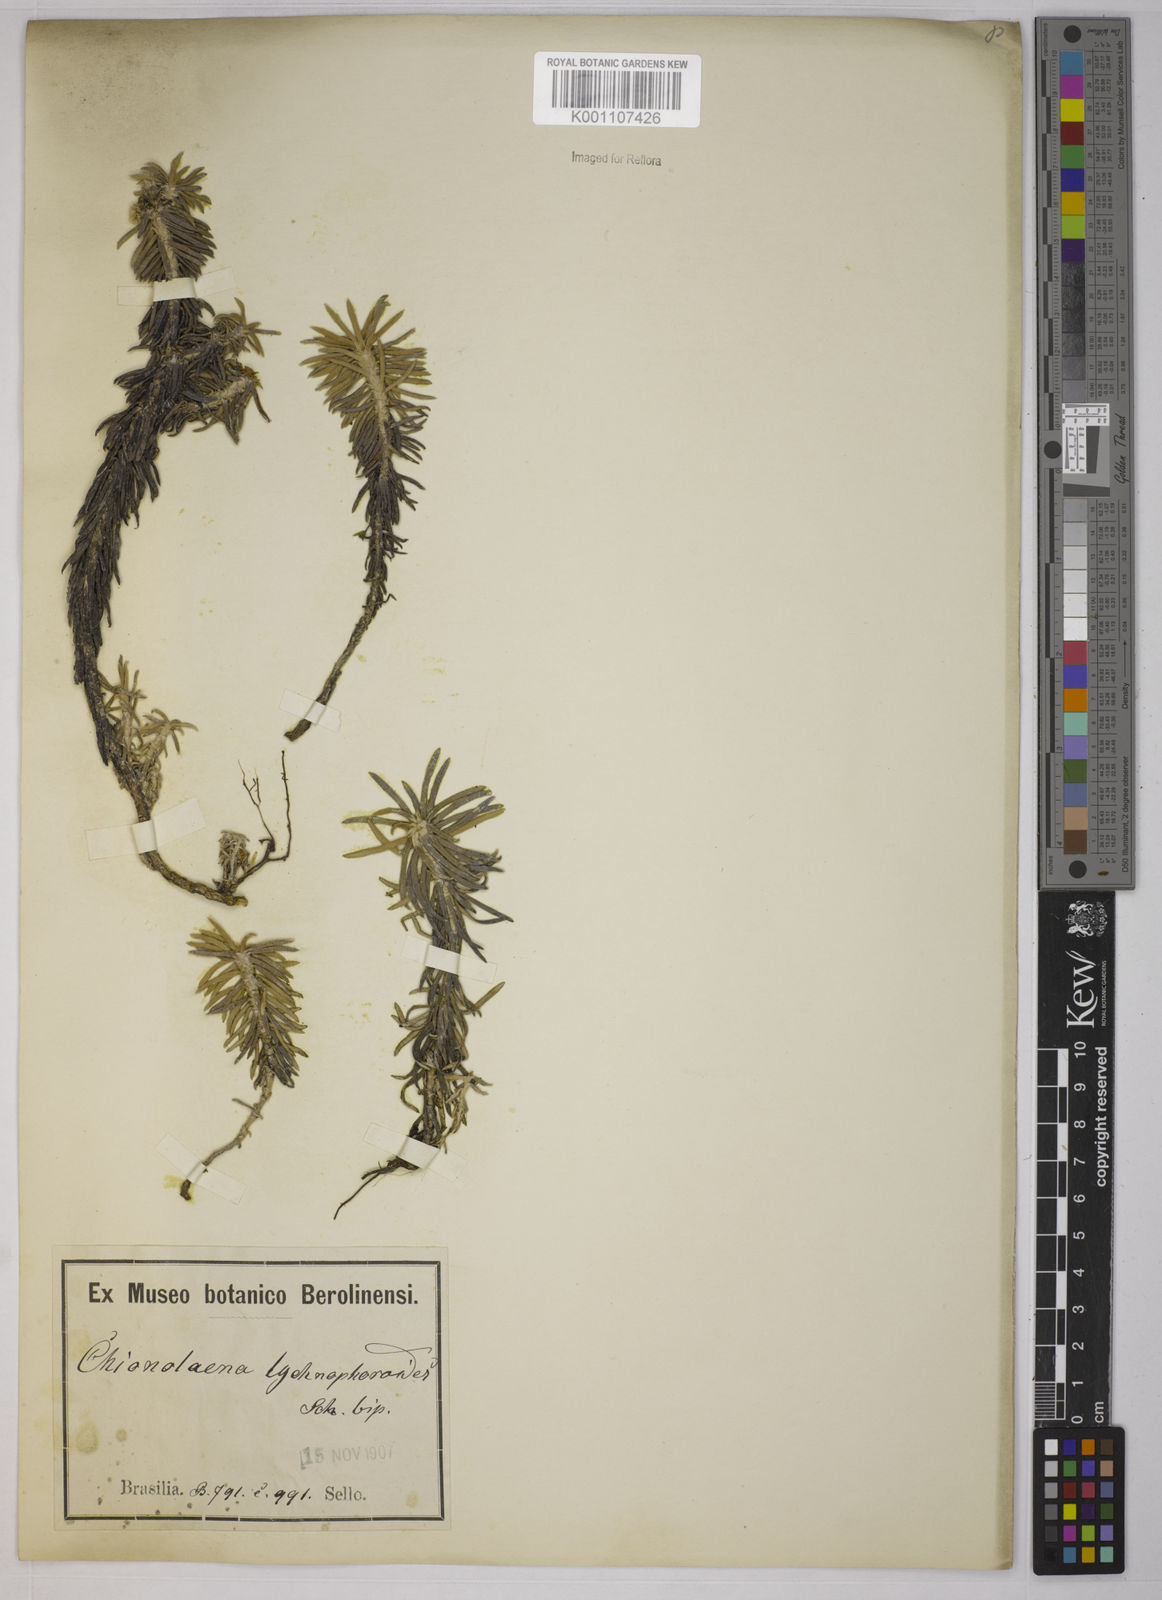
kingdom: Plantae
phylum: Tracheophyta
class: Magnoliopsida
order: Asterales
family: Asteraceae
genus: Chionolaena
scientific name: Chionolaena lychnophorioides
